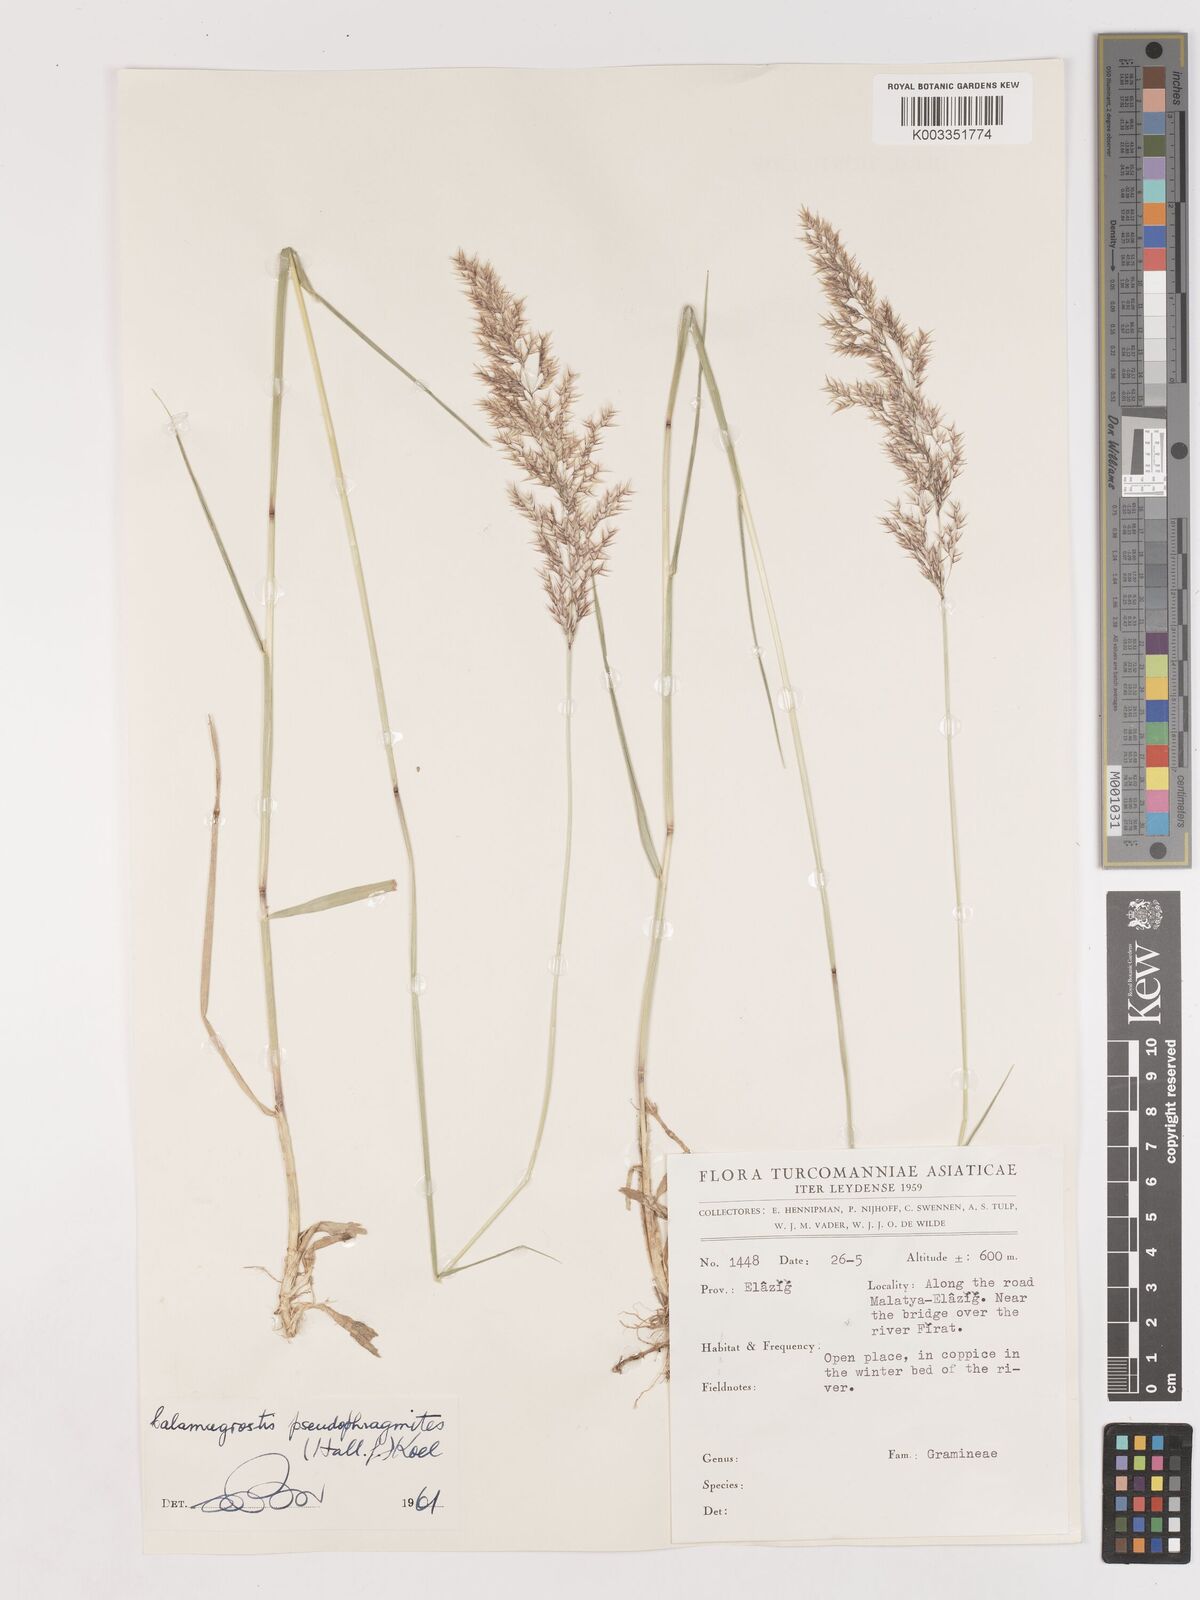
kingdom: Plantae
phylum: Tracheophyta
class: Liliopsida
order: Poales
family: Poaceae
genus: Calamagrostis
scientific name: Calamagrostis pseudophragmites
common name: Coastal small-reed
